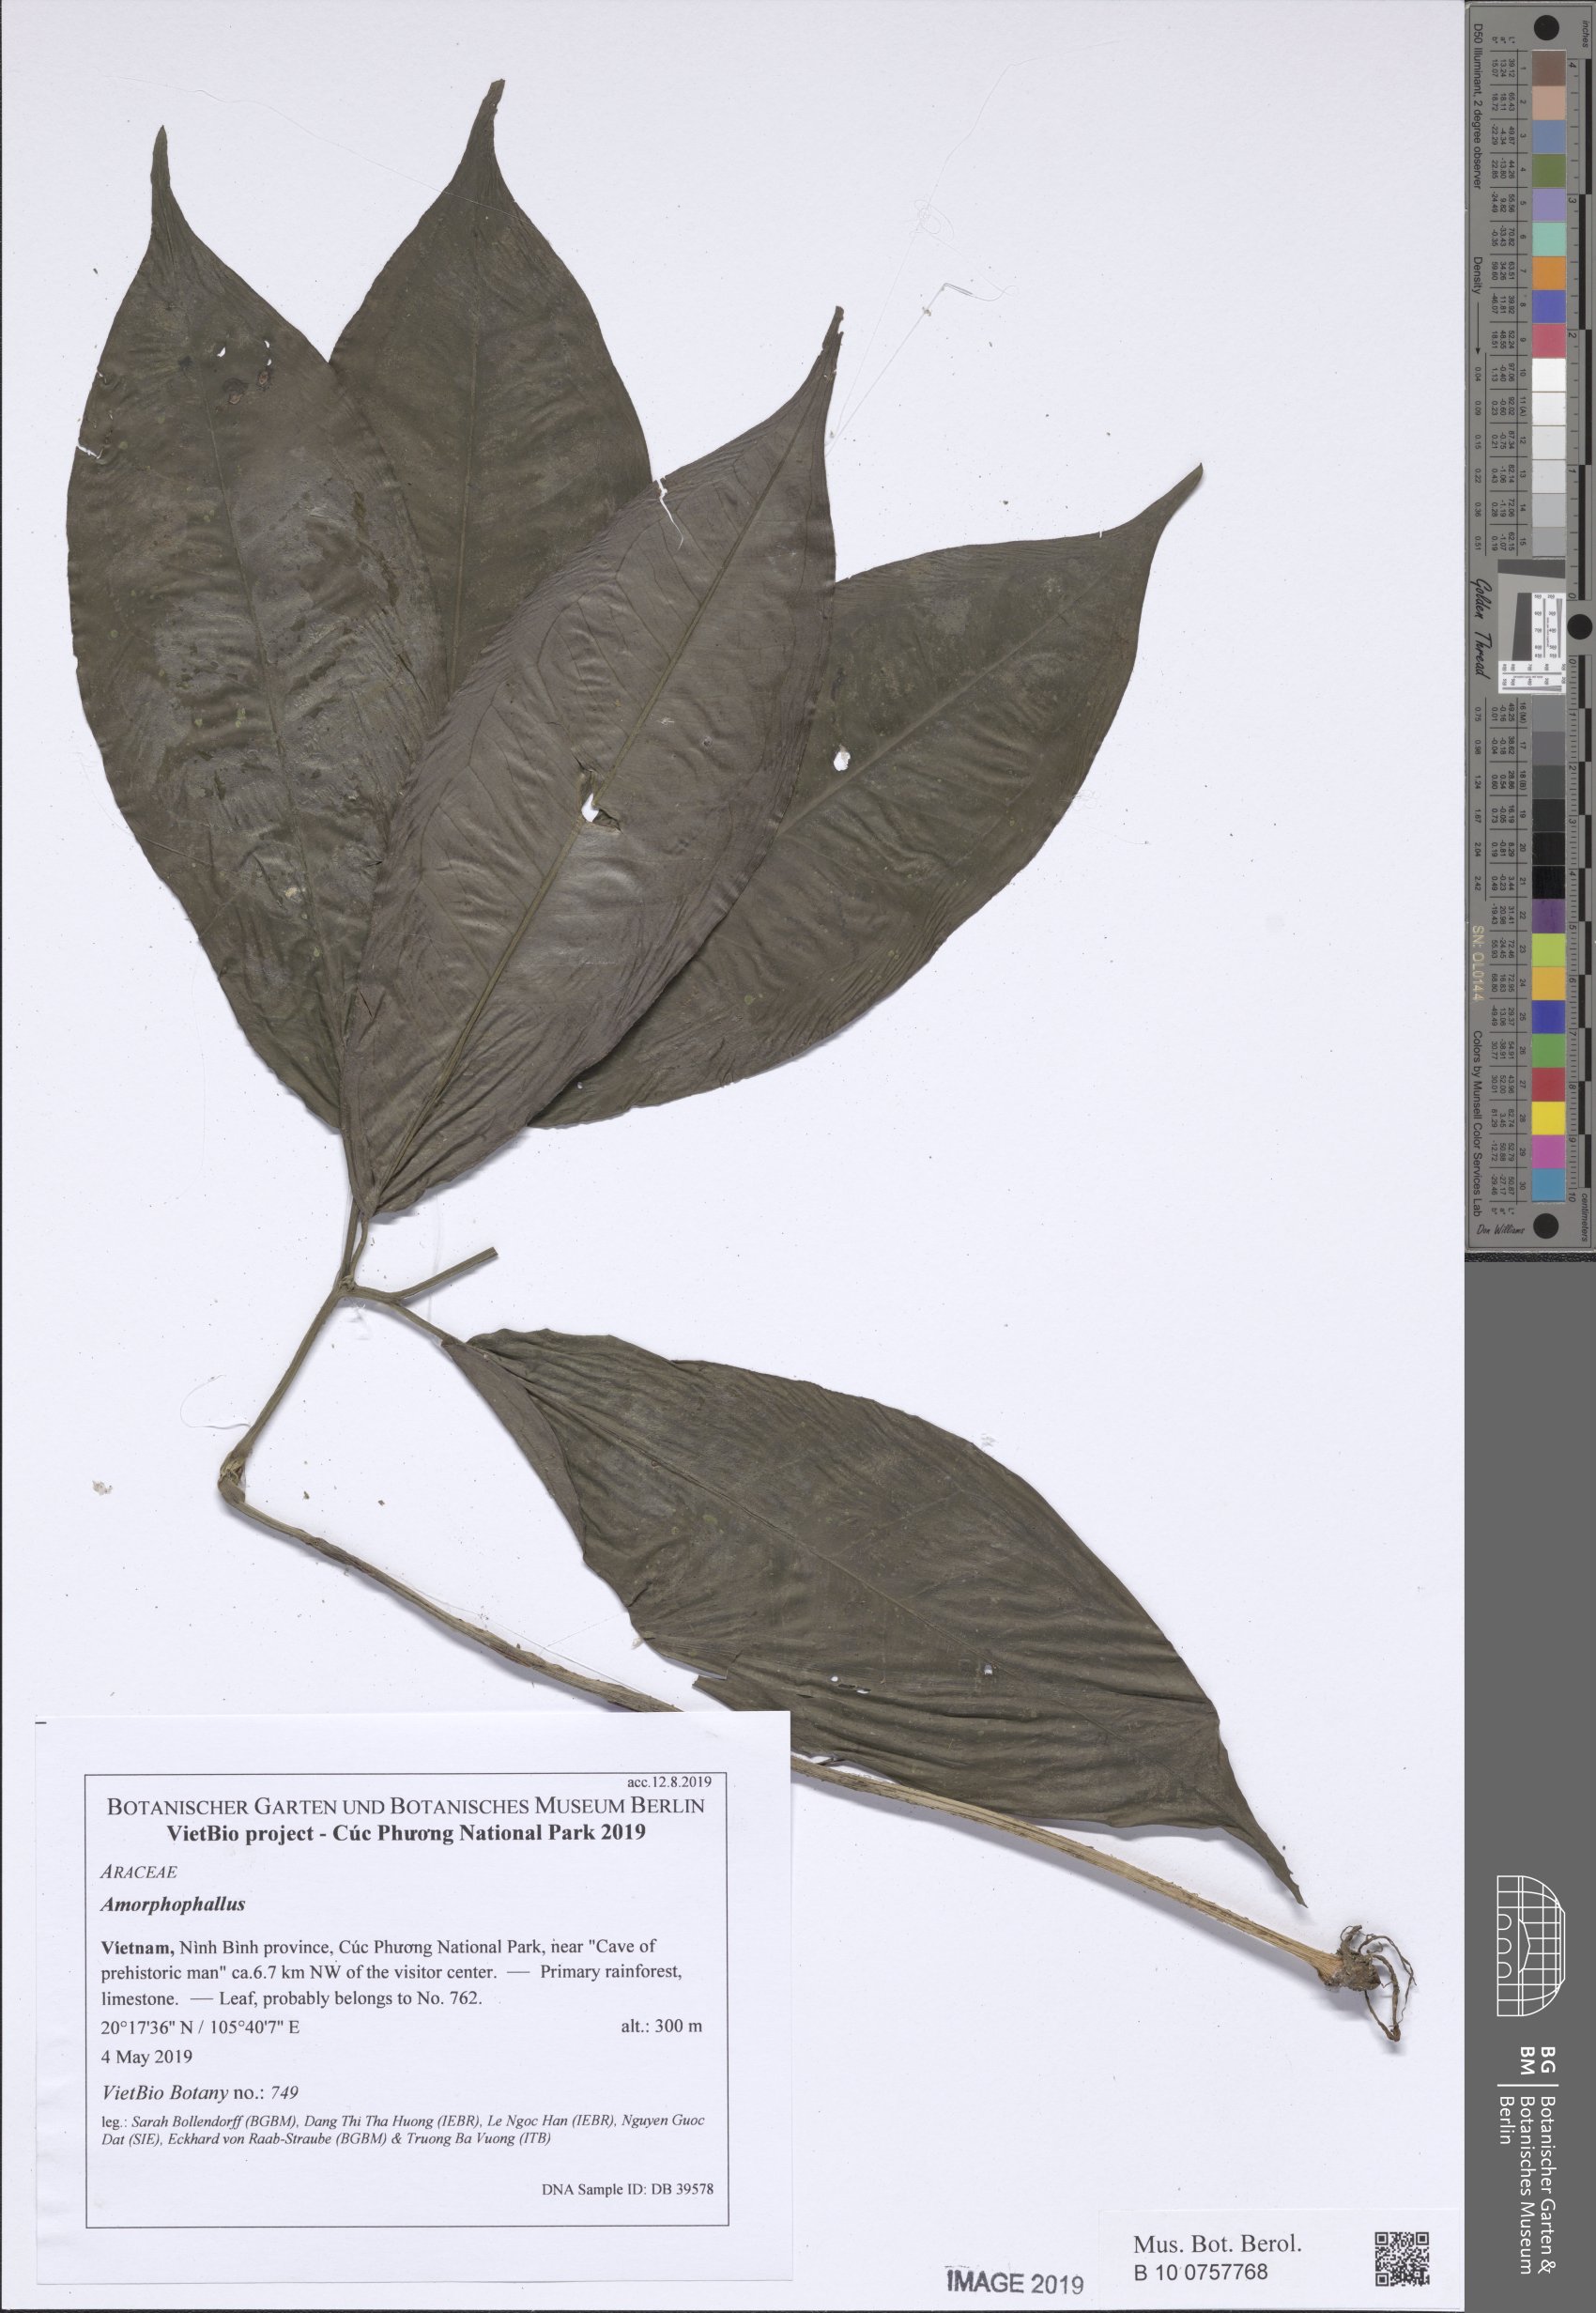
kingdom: Plantae
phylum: Tracheophyta
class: Liliopsida
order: Alismatales
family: Araceae
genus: Amorphophallus
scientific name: Amorphophallus
